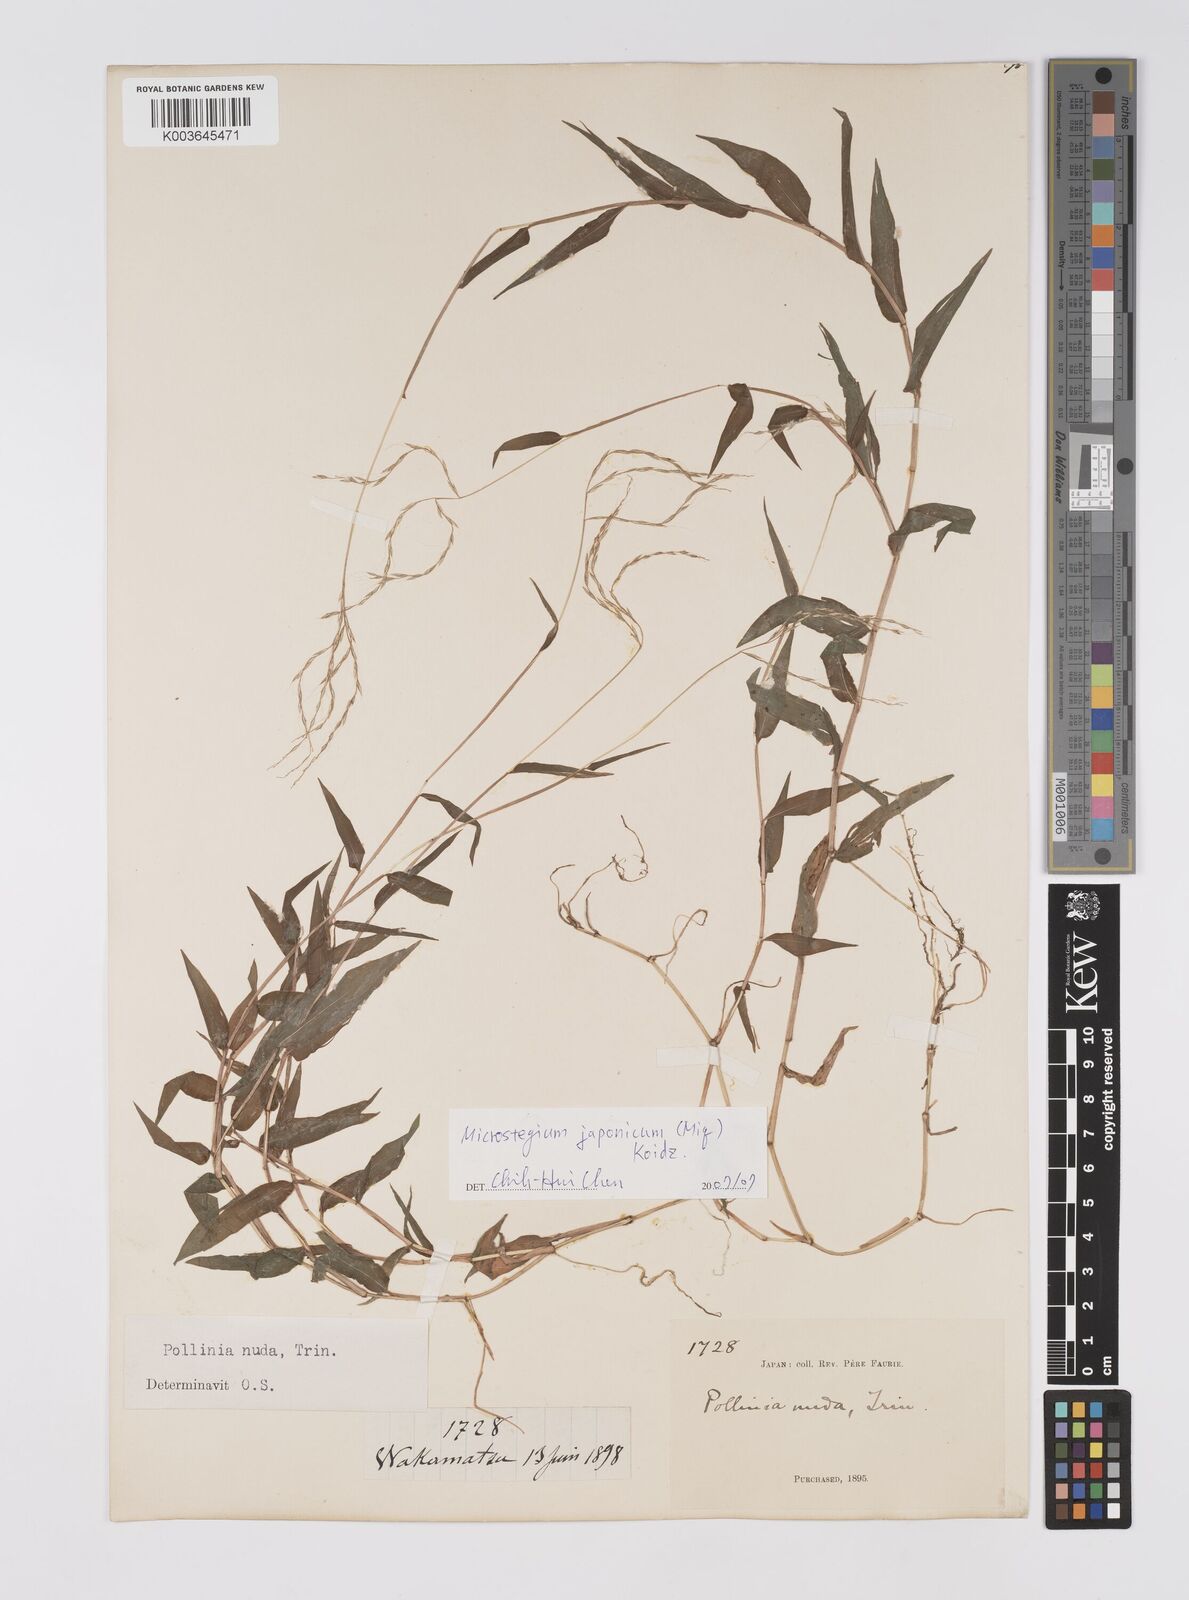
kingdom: Plantae
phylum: Tracheophyta
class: Liliopsida
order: Poales
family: Poaceae
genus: Microstegium
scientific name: Microstegium japonicum
